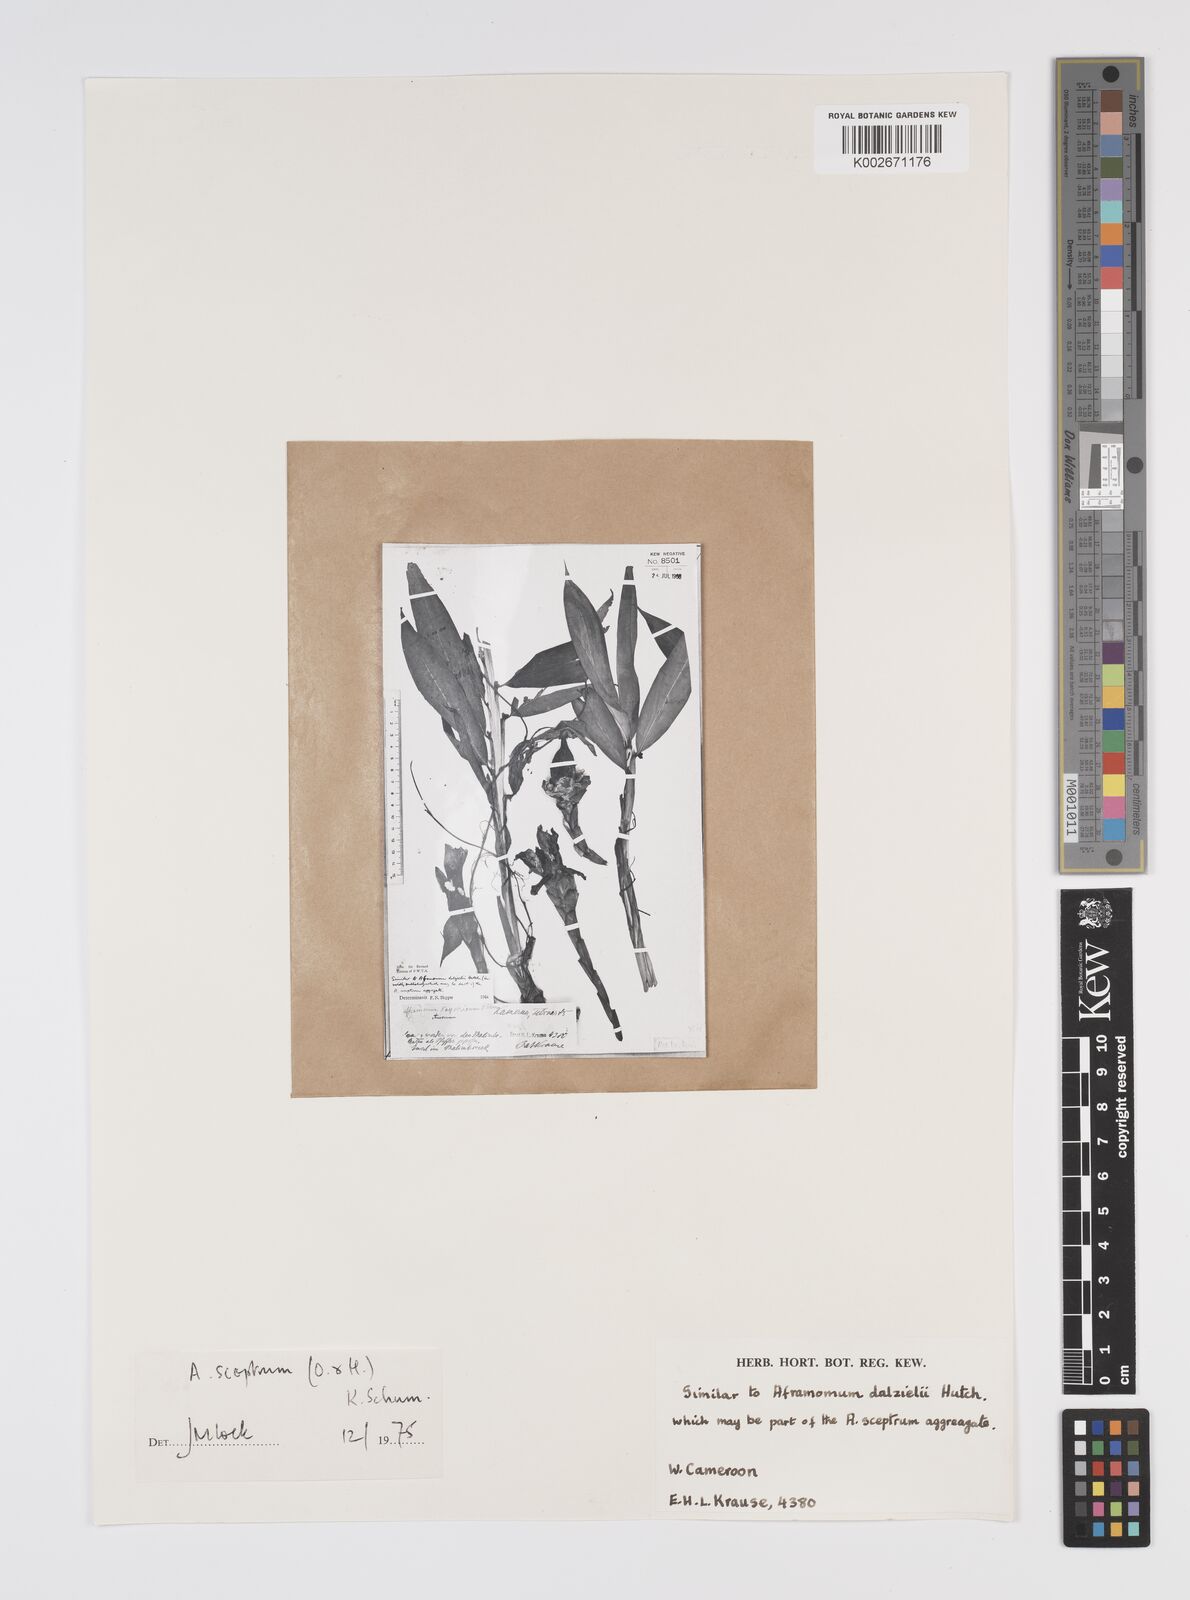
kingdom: Plantae
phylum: Tracheophyta
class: Liliopsida
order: Zingiberales
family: Zingiberaceae
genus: Aframomum
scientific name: Aframomum cereum
